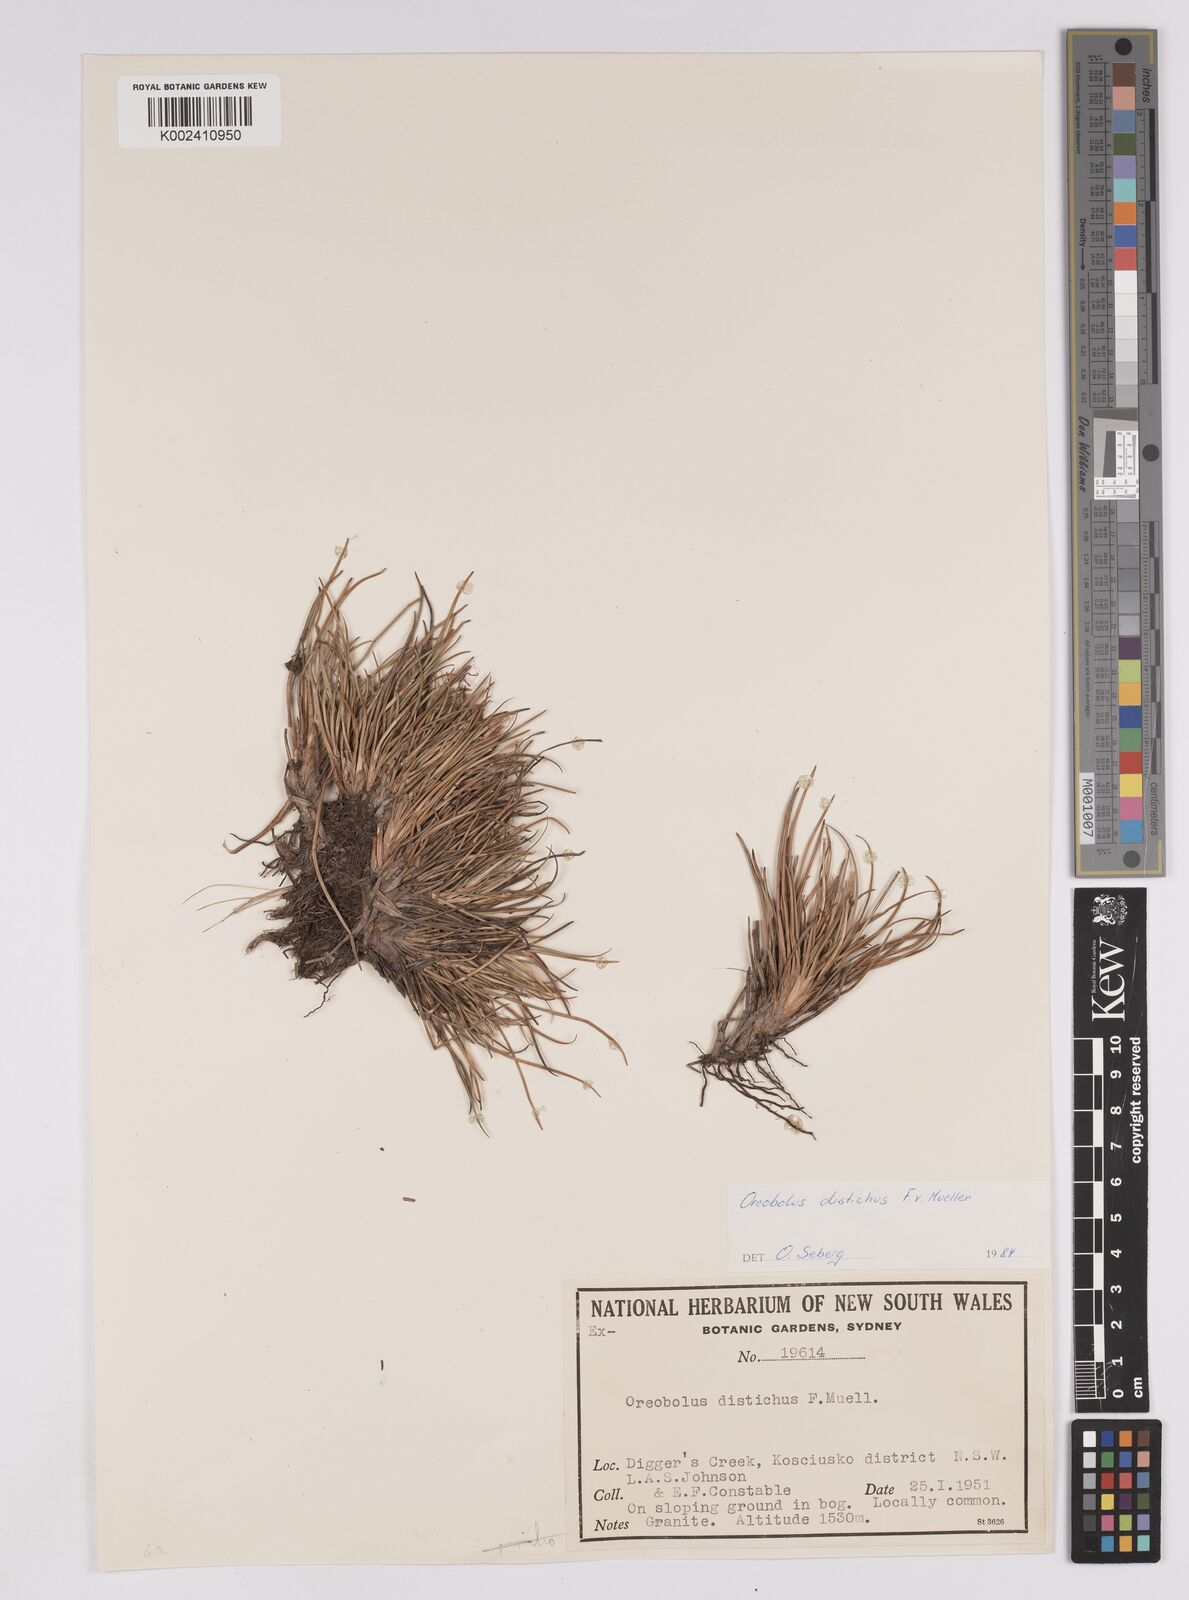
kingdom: Plantae
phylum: Tracheophyta
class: Liliopsida
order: Poales
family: Cyperaceae
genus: Oreobolus
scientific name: Oreobolus distichus
